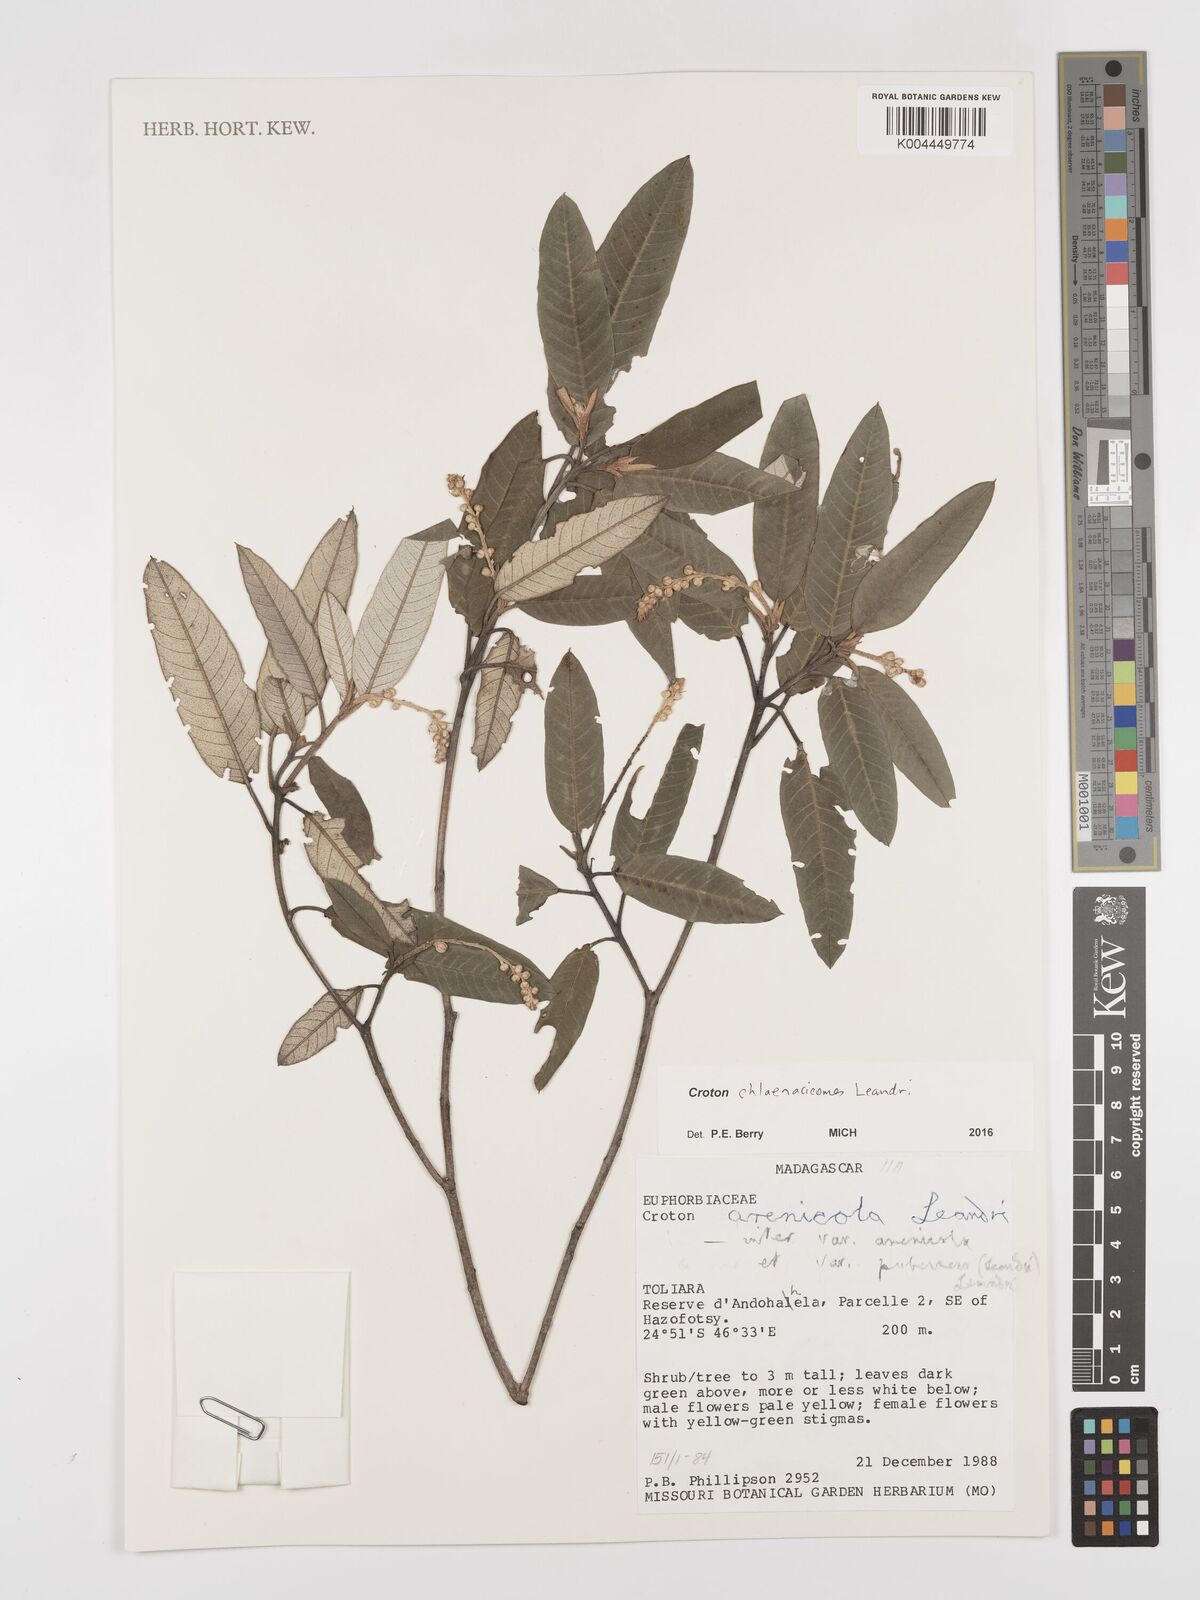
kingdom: Plantae
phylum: Tracheophyta
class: Magnoliopsida
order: Malpighiales
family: Euphorbiaceae
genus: Croton
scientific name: Croton chlaenacicomes
